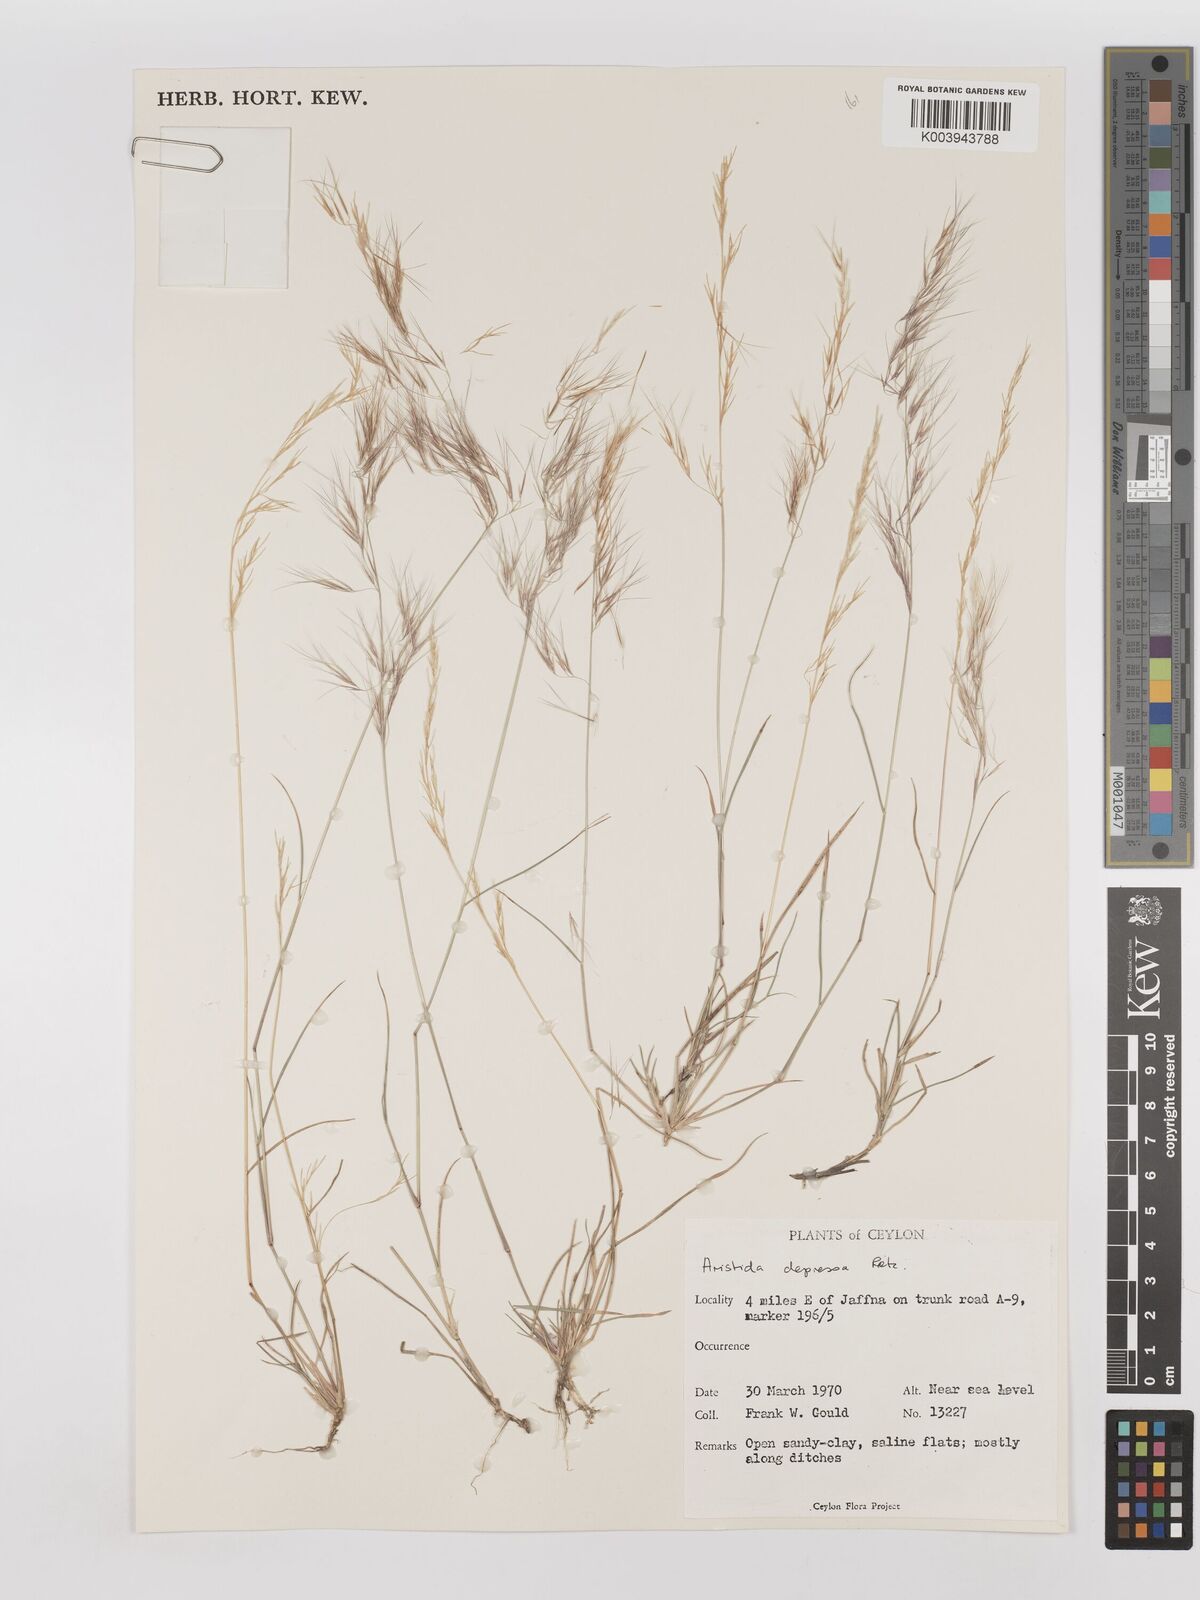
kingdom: Plantae
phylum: Tracheophyta
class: Liliopsida
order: Poales
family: Poaceae
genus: Aristida
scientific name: Aristida adscensionis
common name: Sixweeks threeawn
